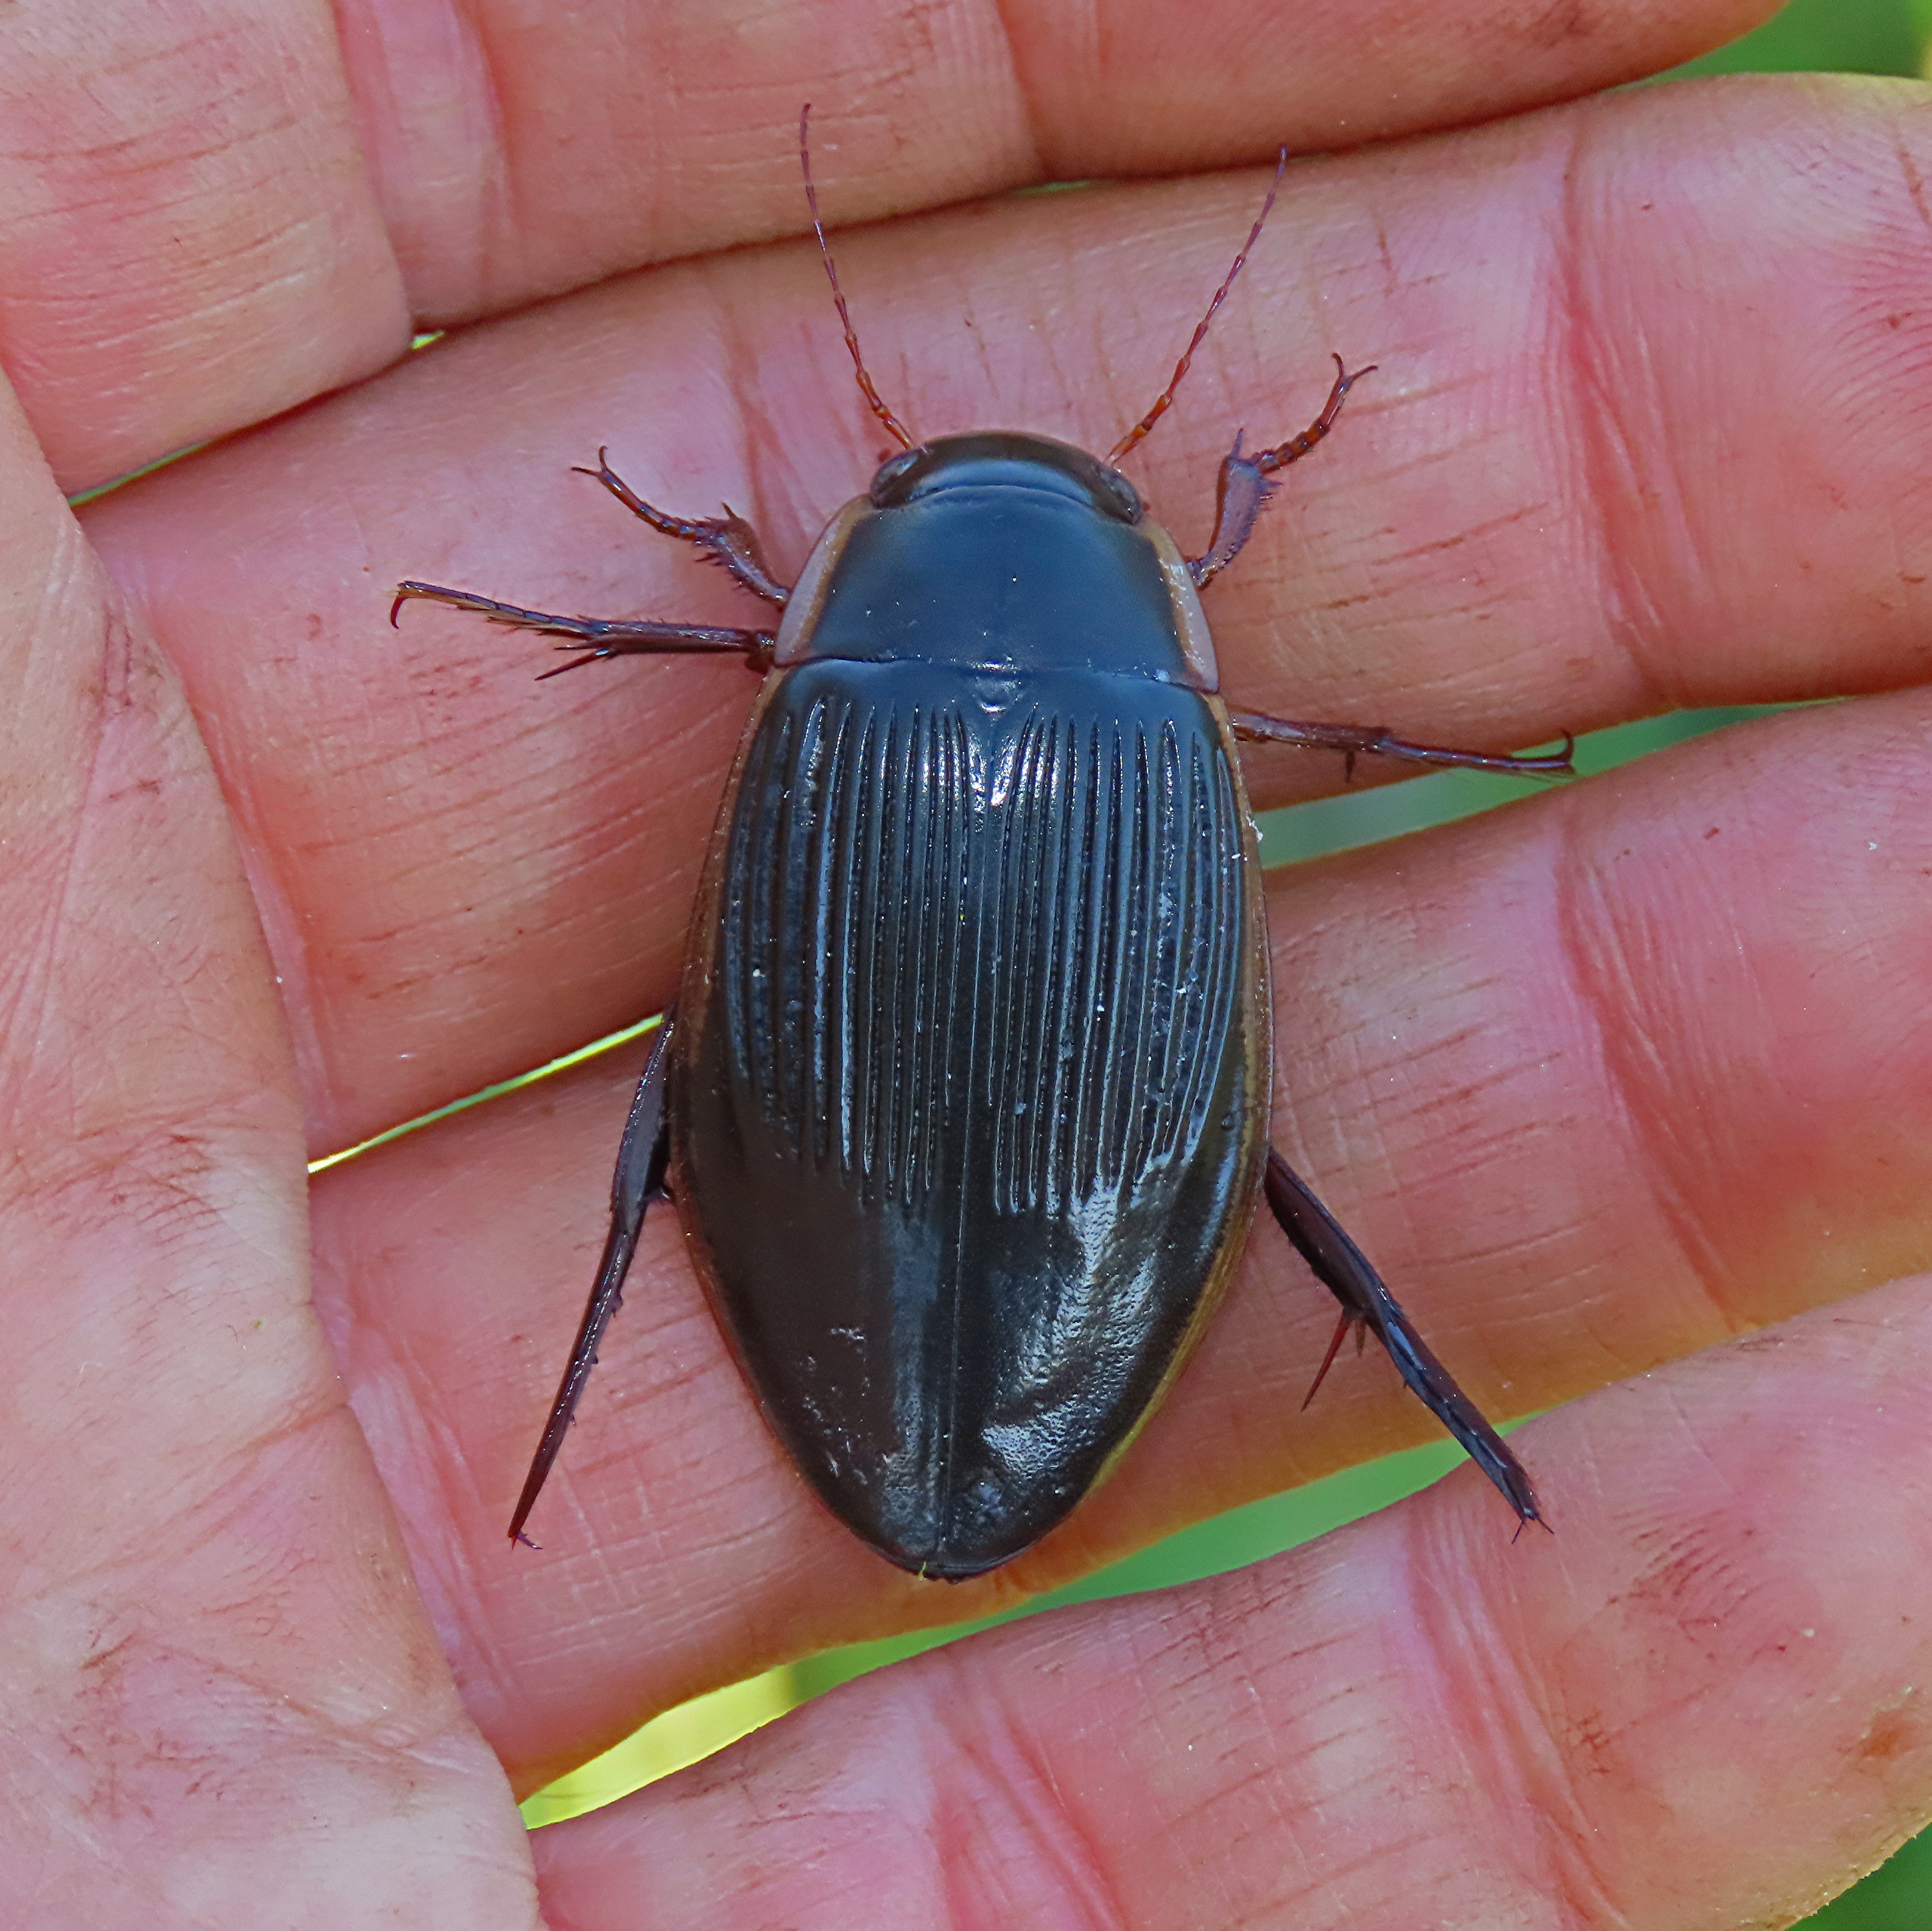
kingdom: Animalia
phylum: Arthropoda
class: Insecta
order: Coleoptera
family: Dytiscidae
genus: Dytiscus
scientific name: Dytiscus dimidiatus
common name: Rundhoftet vandkalv
